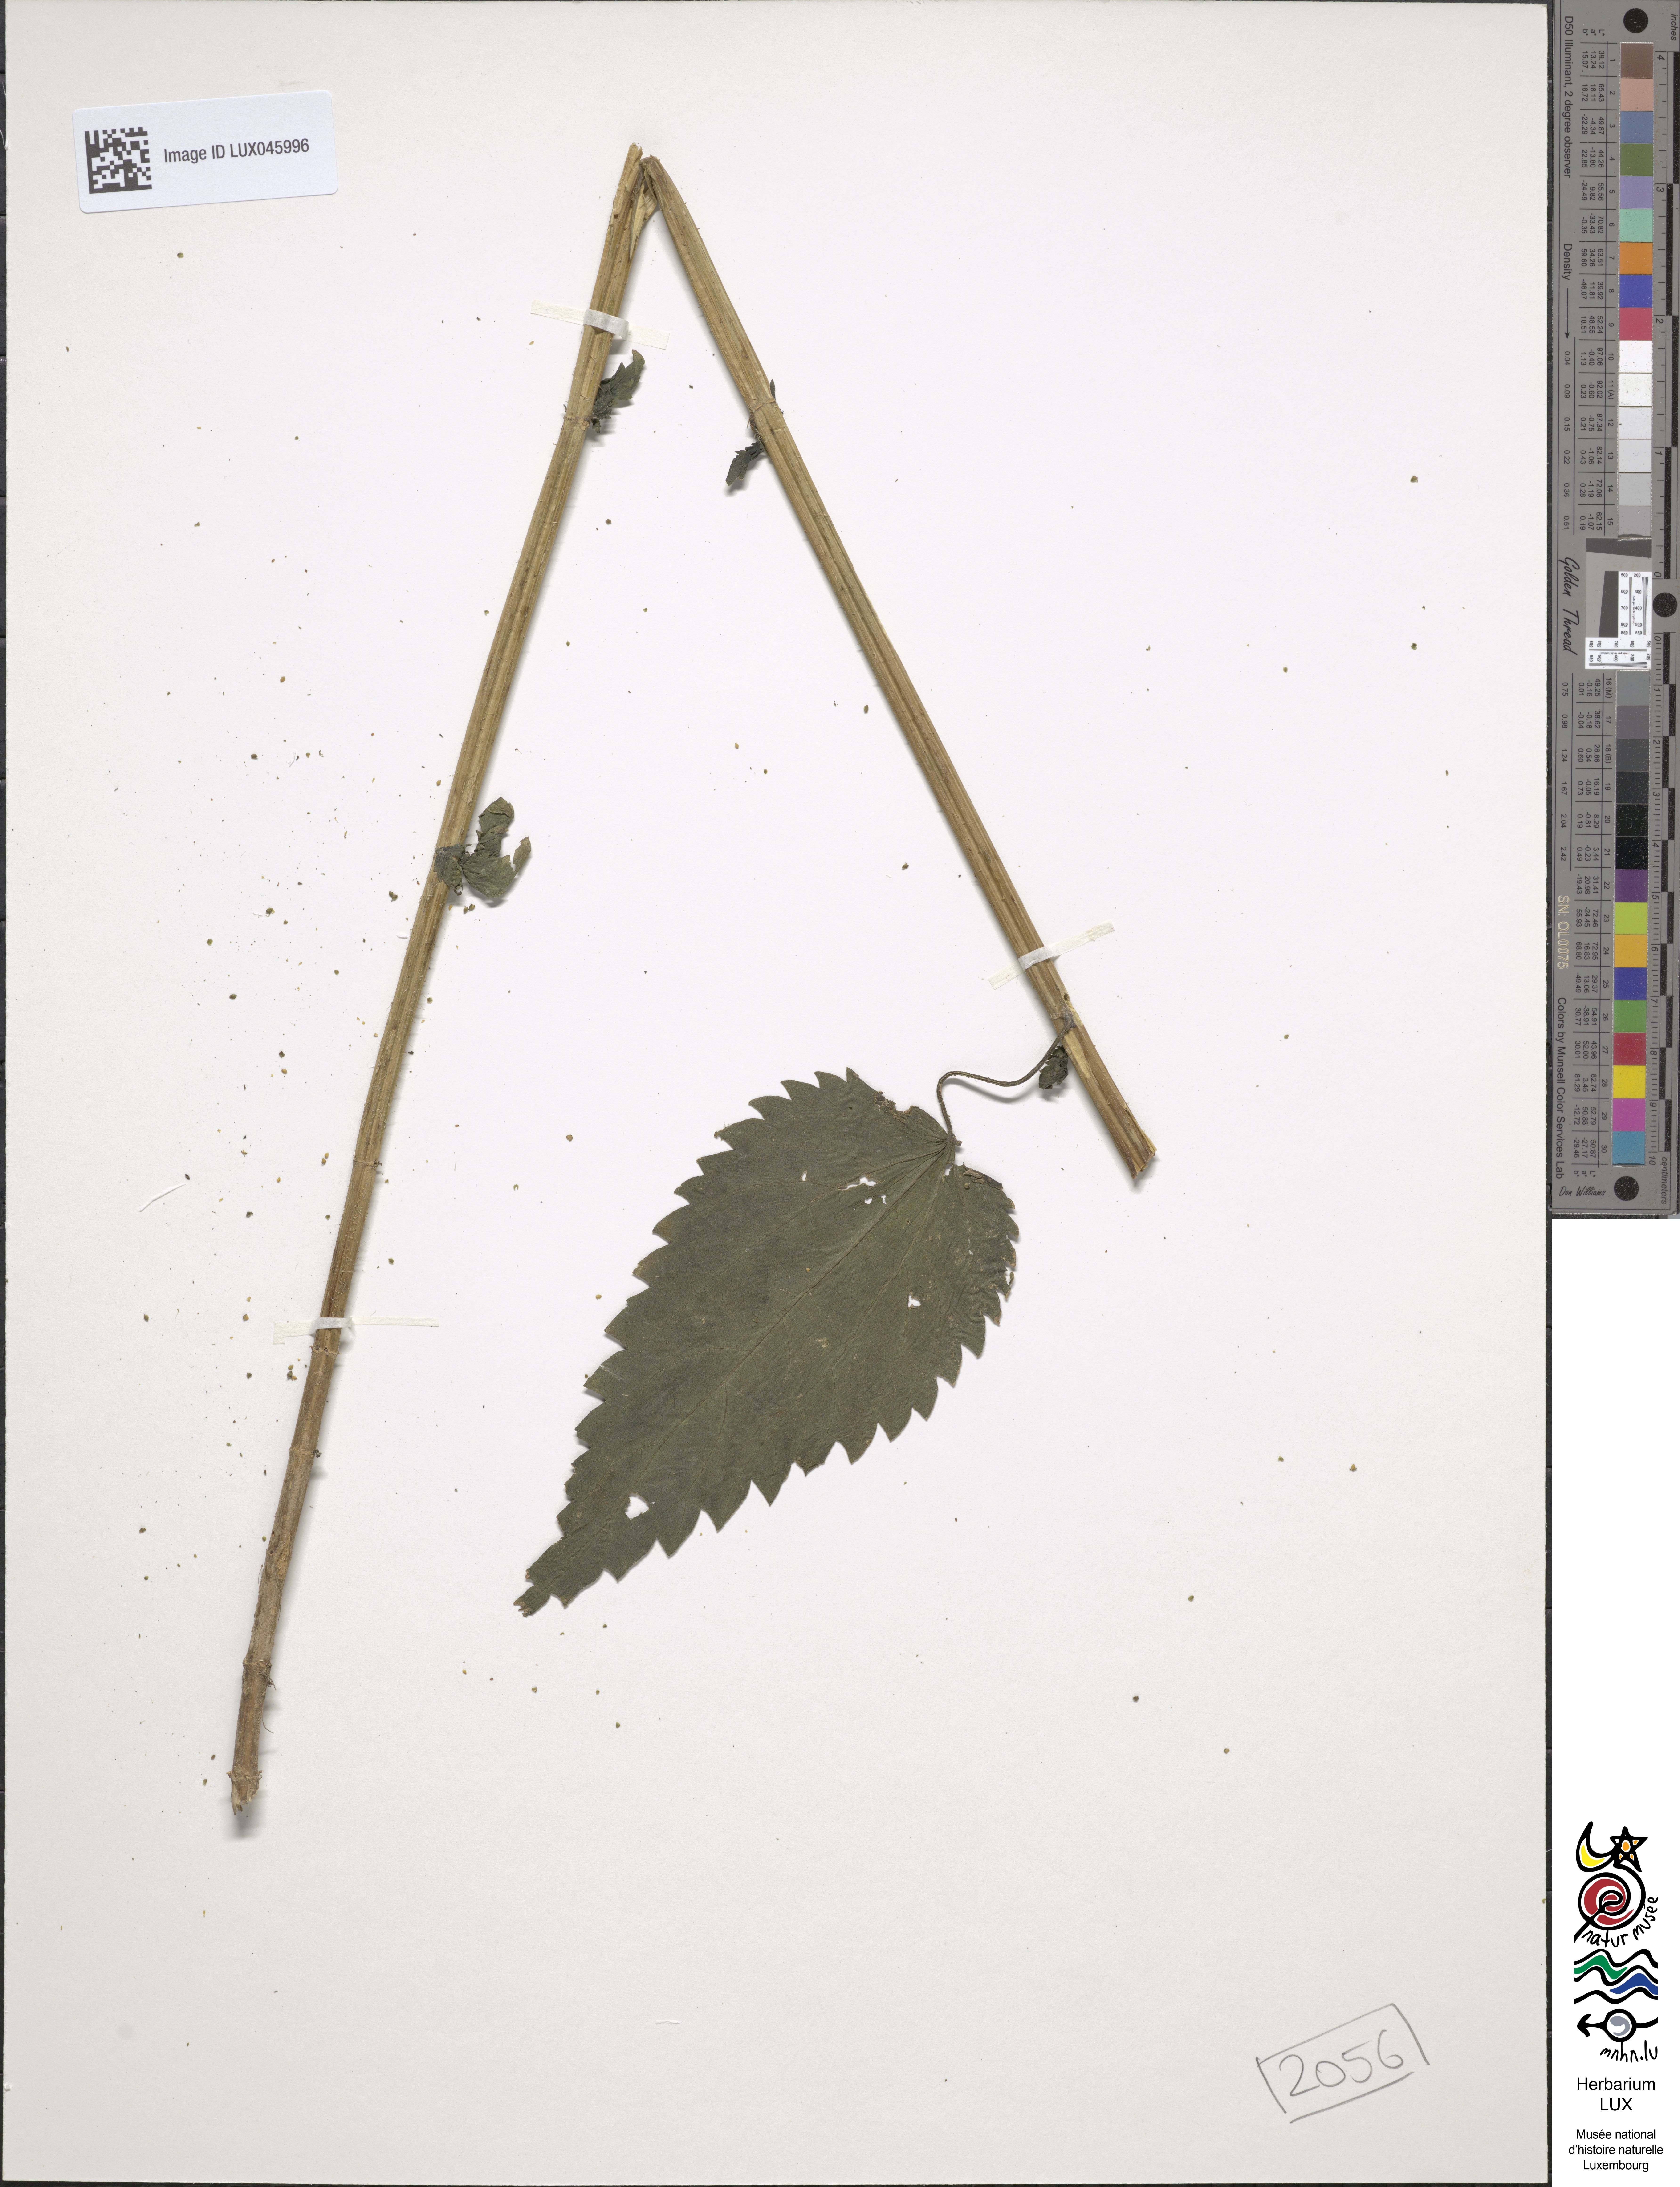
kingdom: Plantae
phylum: Tracheophyta
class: Magnoliopsida
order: Rosales
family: Urticaceae
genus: Urtica
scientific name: Urtica dioica
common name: Common nettle
